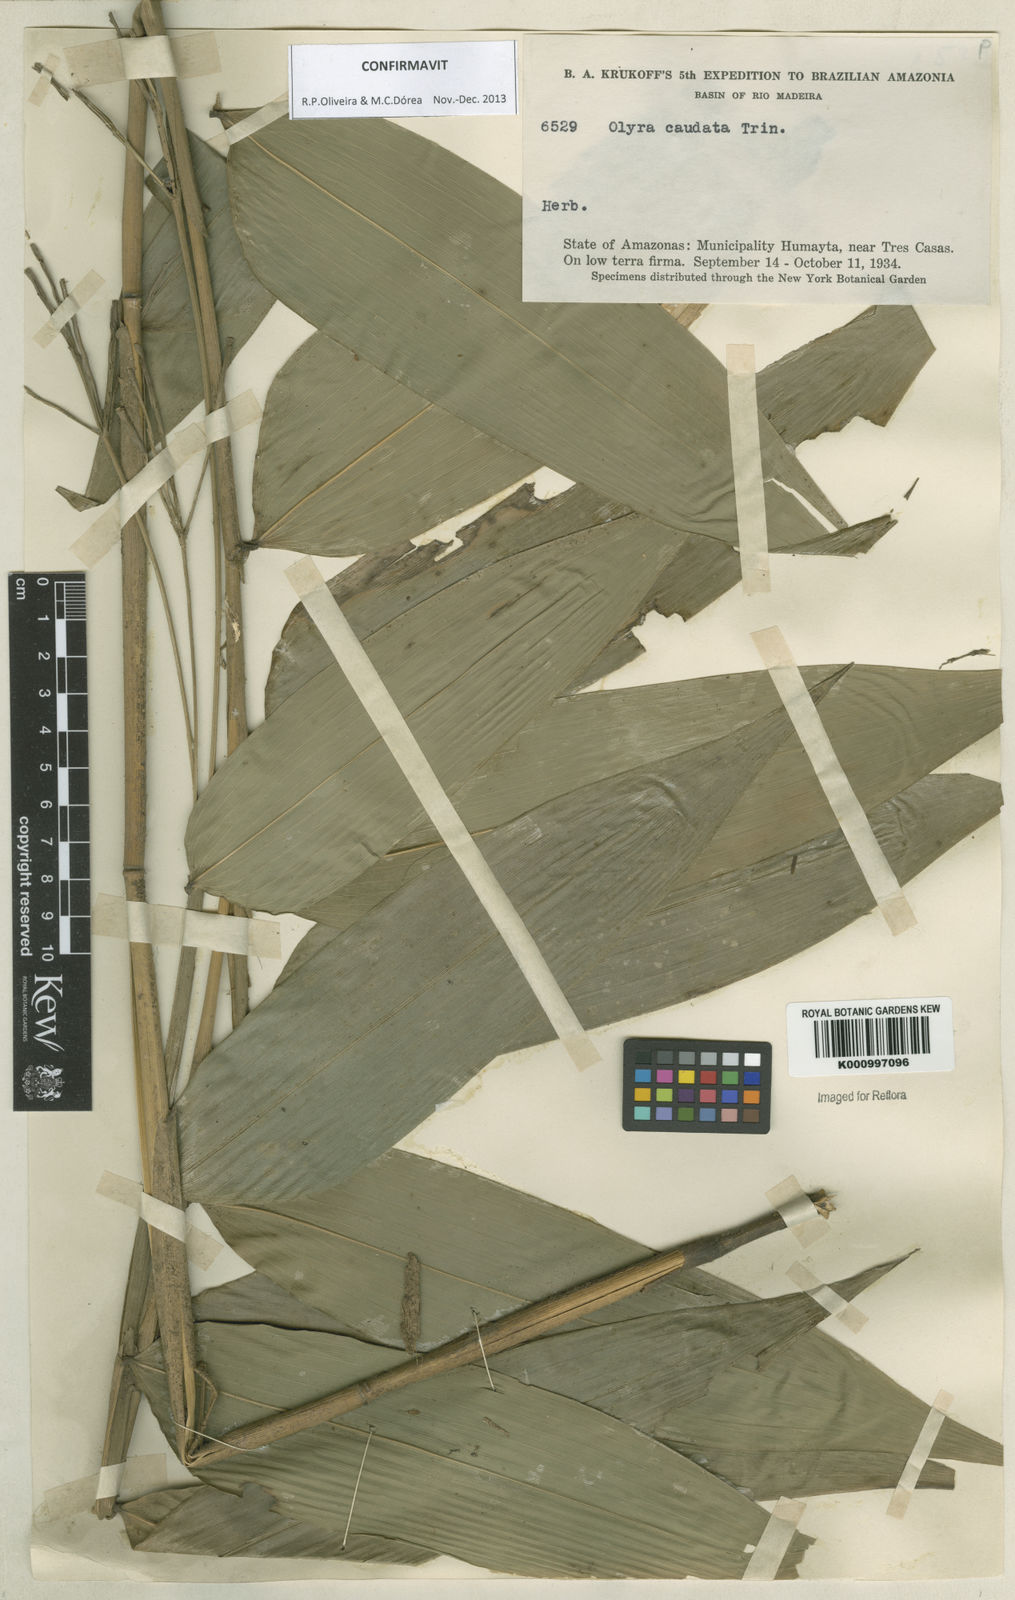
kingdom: Plantae
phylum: Tracheophyta
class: Liliopsida
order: Poales
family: Poaceae
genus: Olyra
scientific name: Olyra caudata
